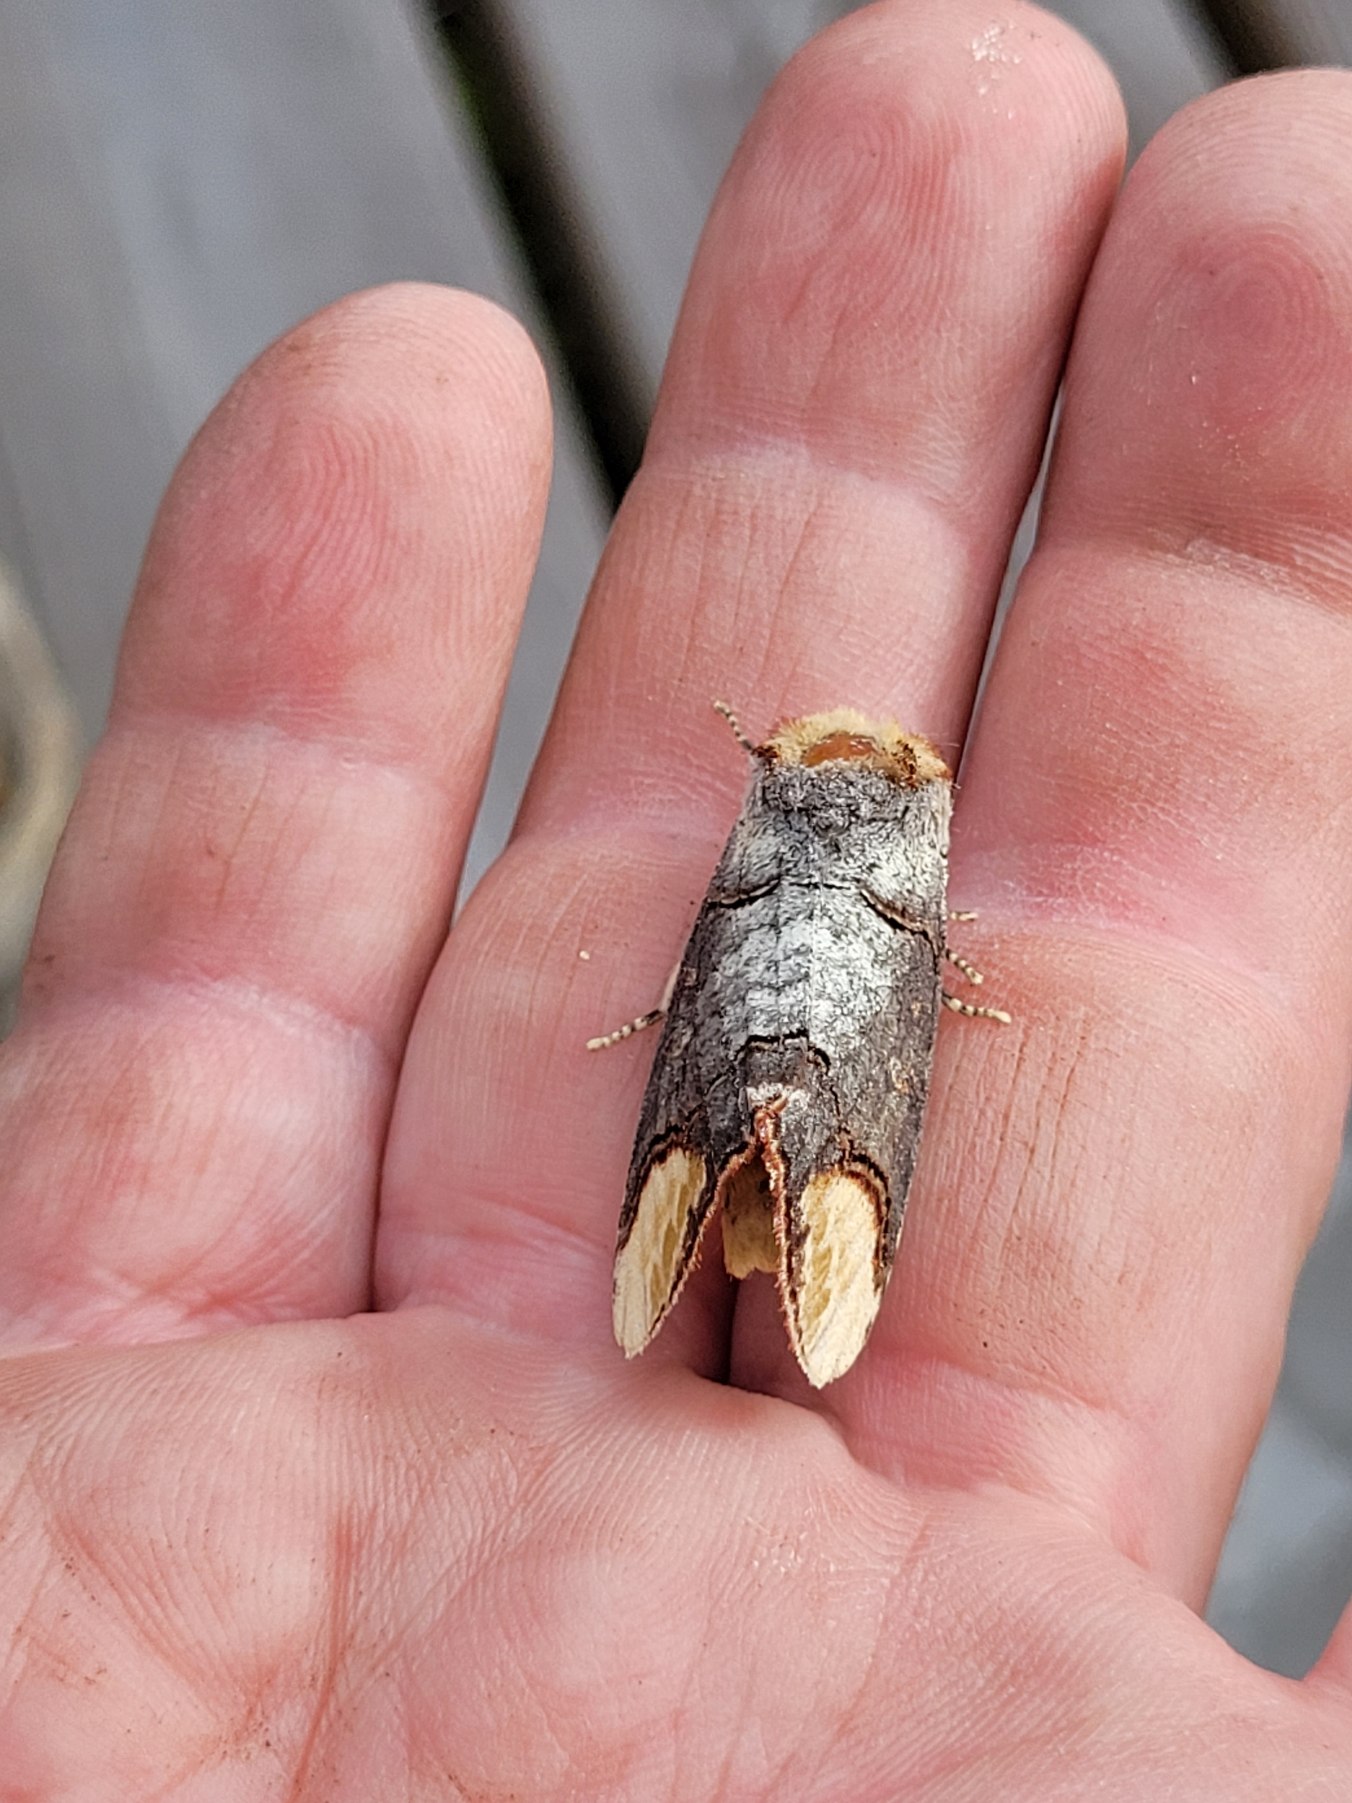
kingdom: Animalia
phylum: Arthropoda
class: Insecta
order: Lepidoptera
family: Notodontidae
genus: Phalera
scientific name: Phalera bucephala
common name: Måneplet
